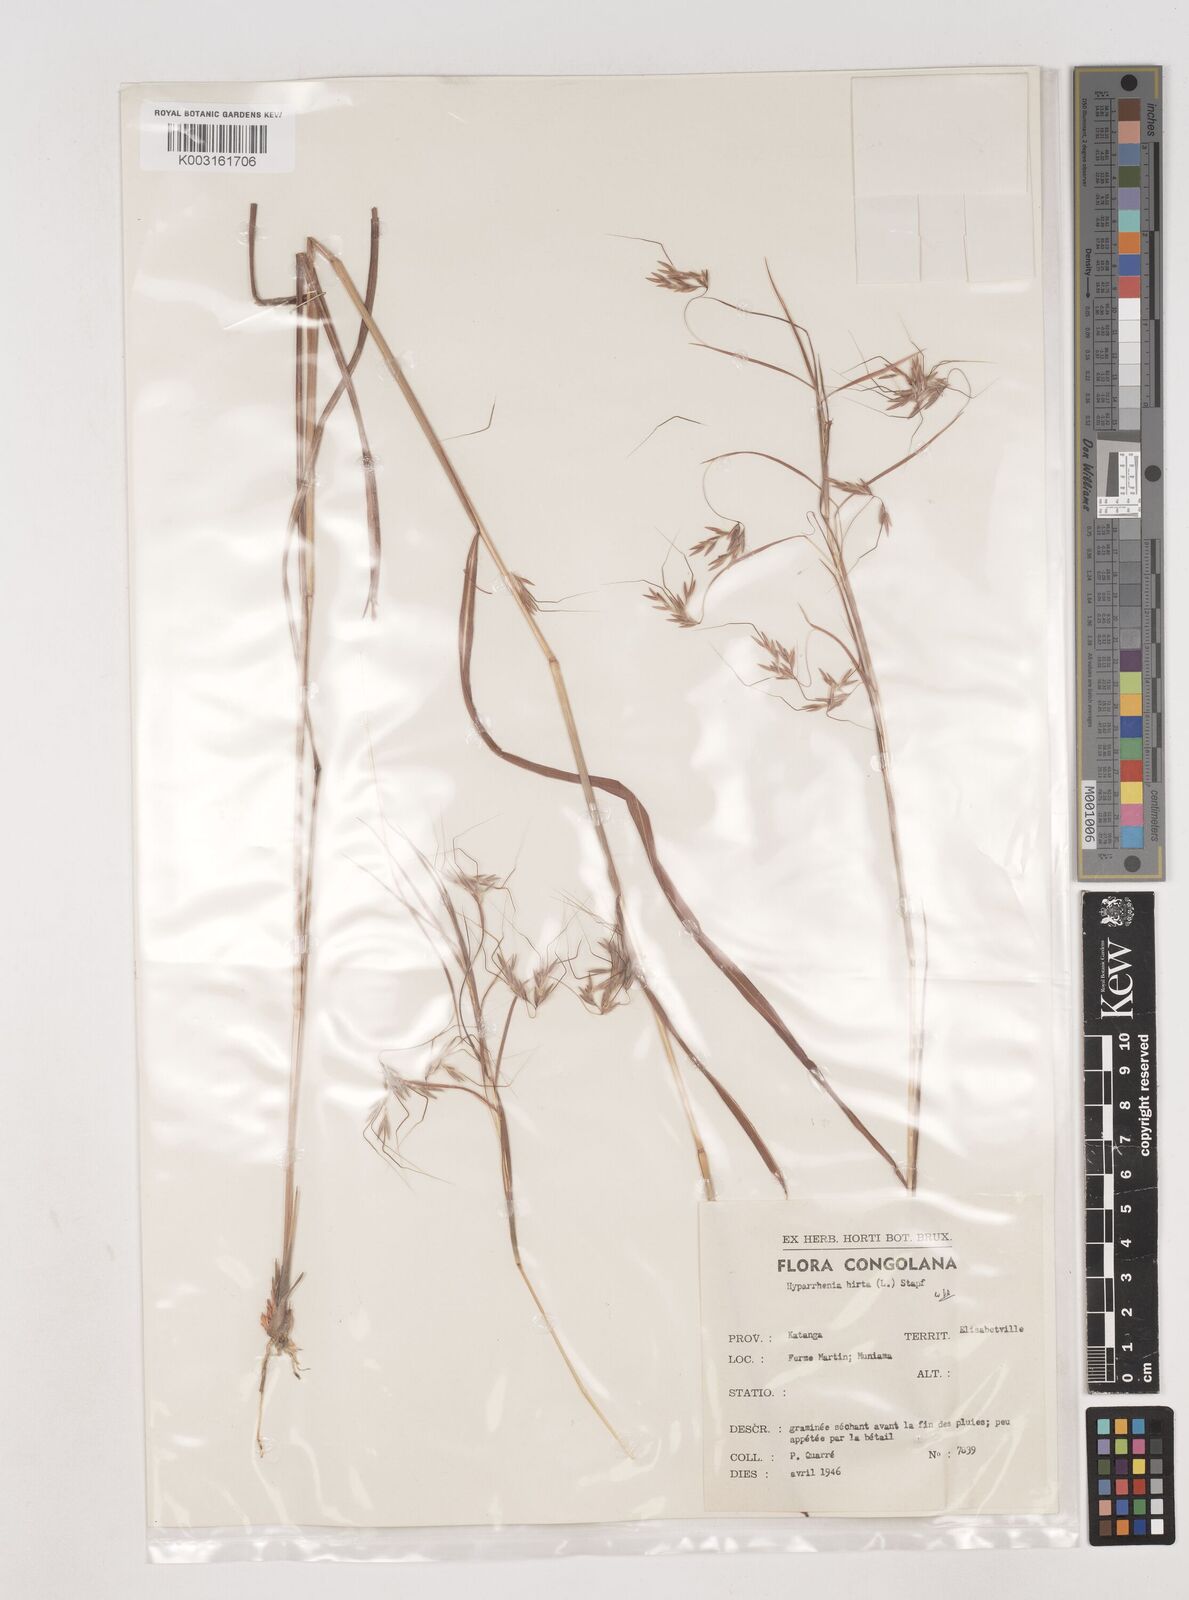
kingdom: Plantae
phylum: Tracheophyta
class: Liliopsida
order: Poales
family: Poaceae
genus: Hyparrhenia
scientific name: Hyparrhenia hirta
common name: Thatching grass
